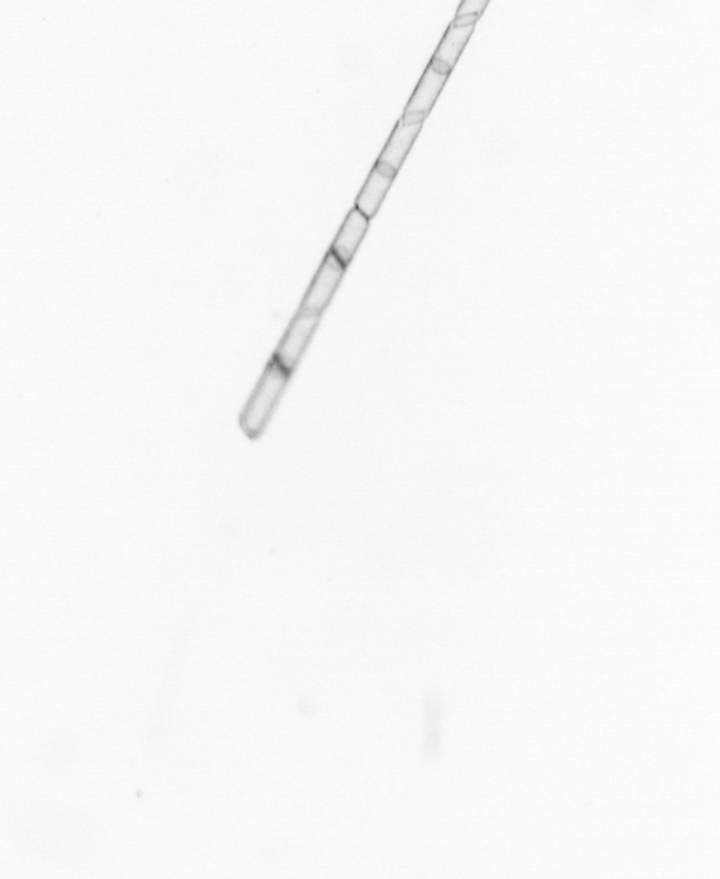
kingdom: Chromista
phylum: Ochrophyta
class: Bacillariophyceae
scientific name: Bacillariophyceae
